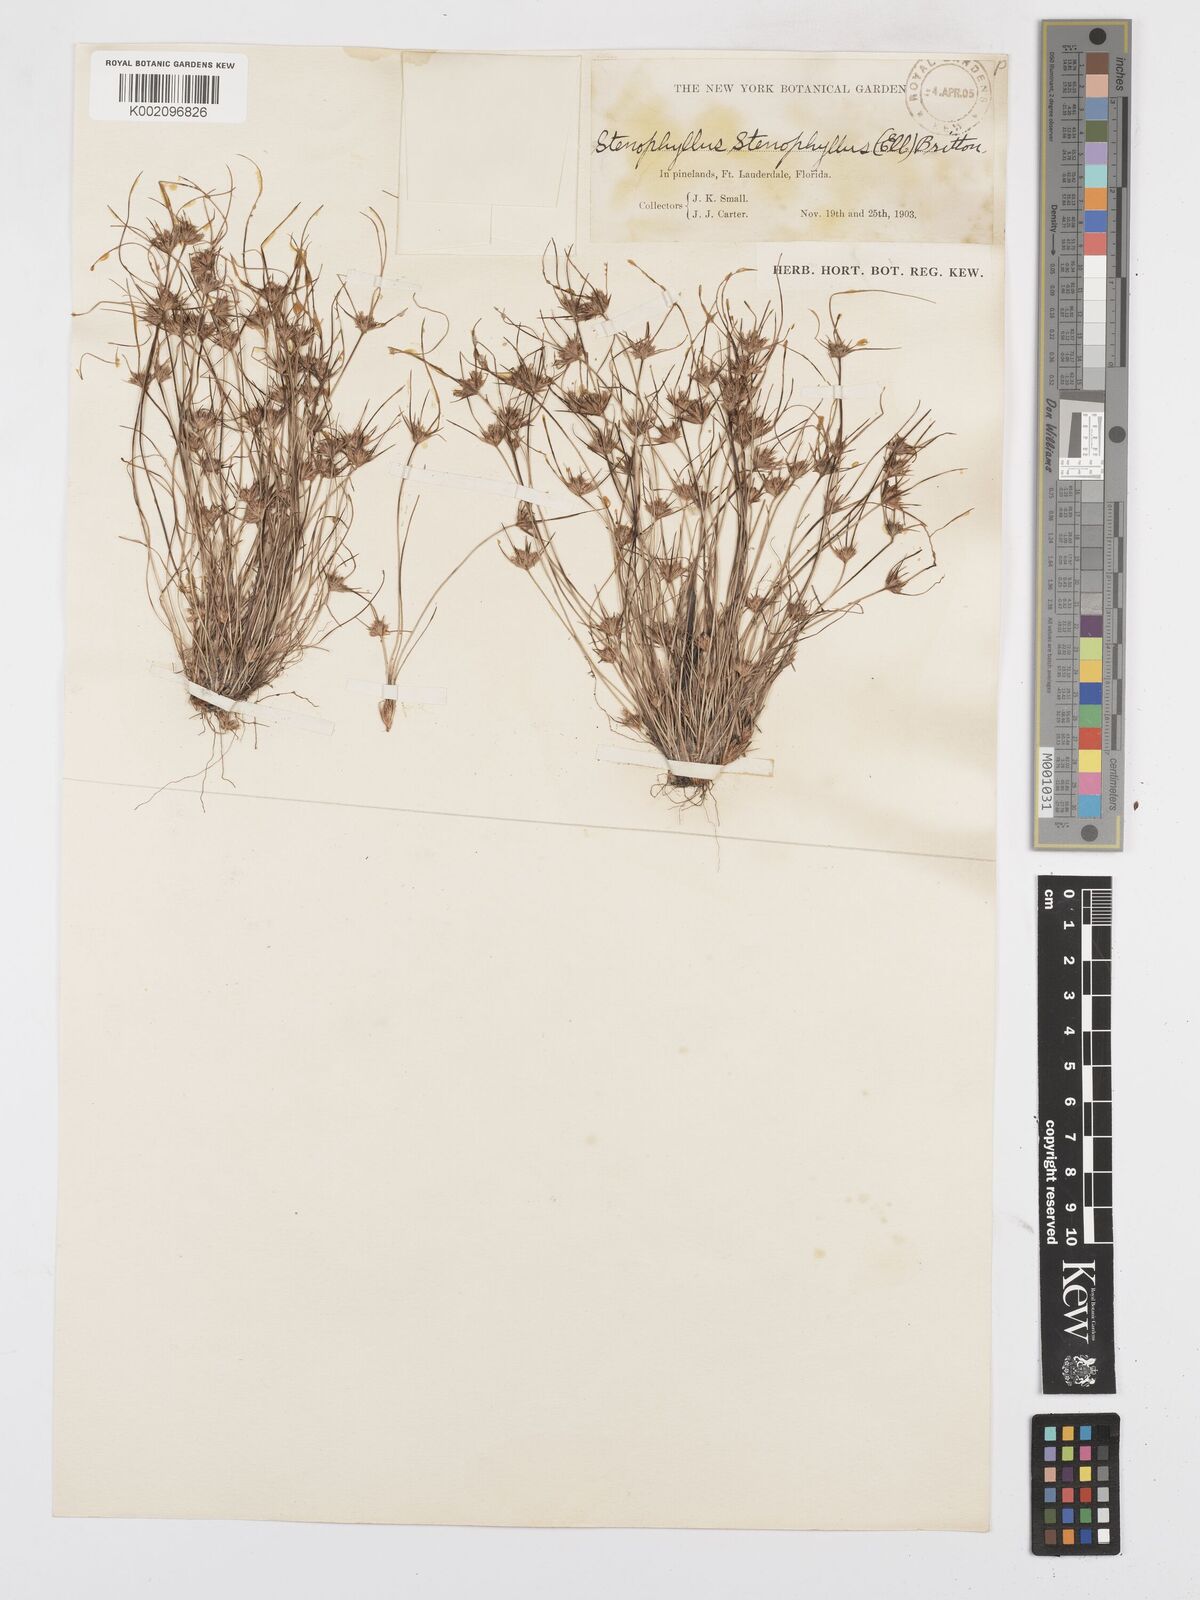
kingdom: Plantae
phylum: Tracheophyta
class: Liliopsida
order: Poales
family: Cyperaceae
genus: Bulbostylis
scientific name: Bulbostylis rarissima
